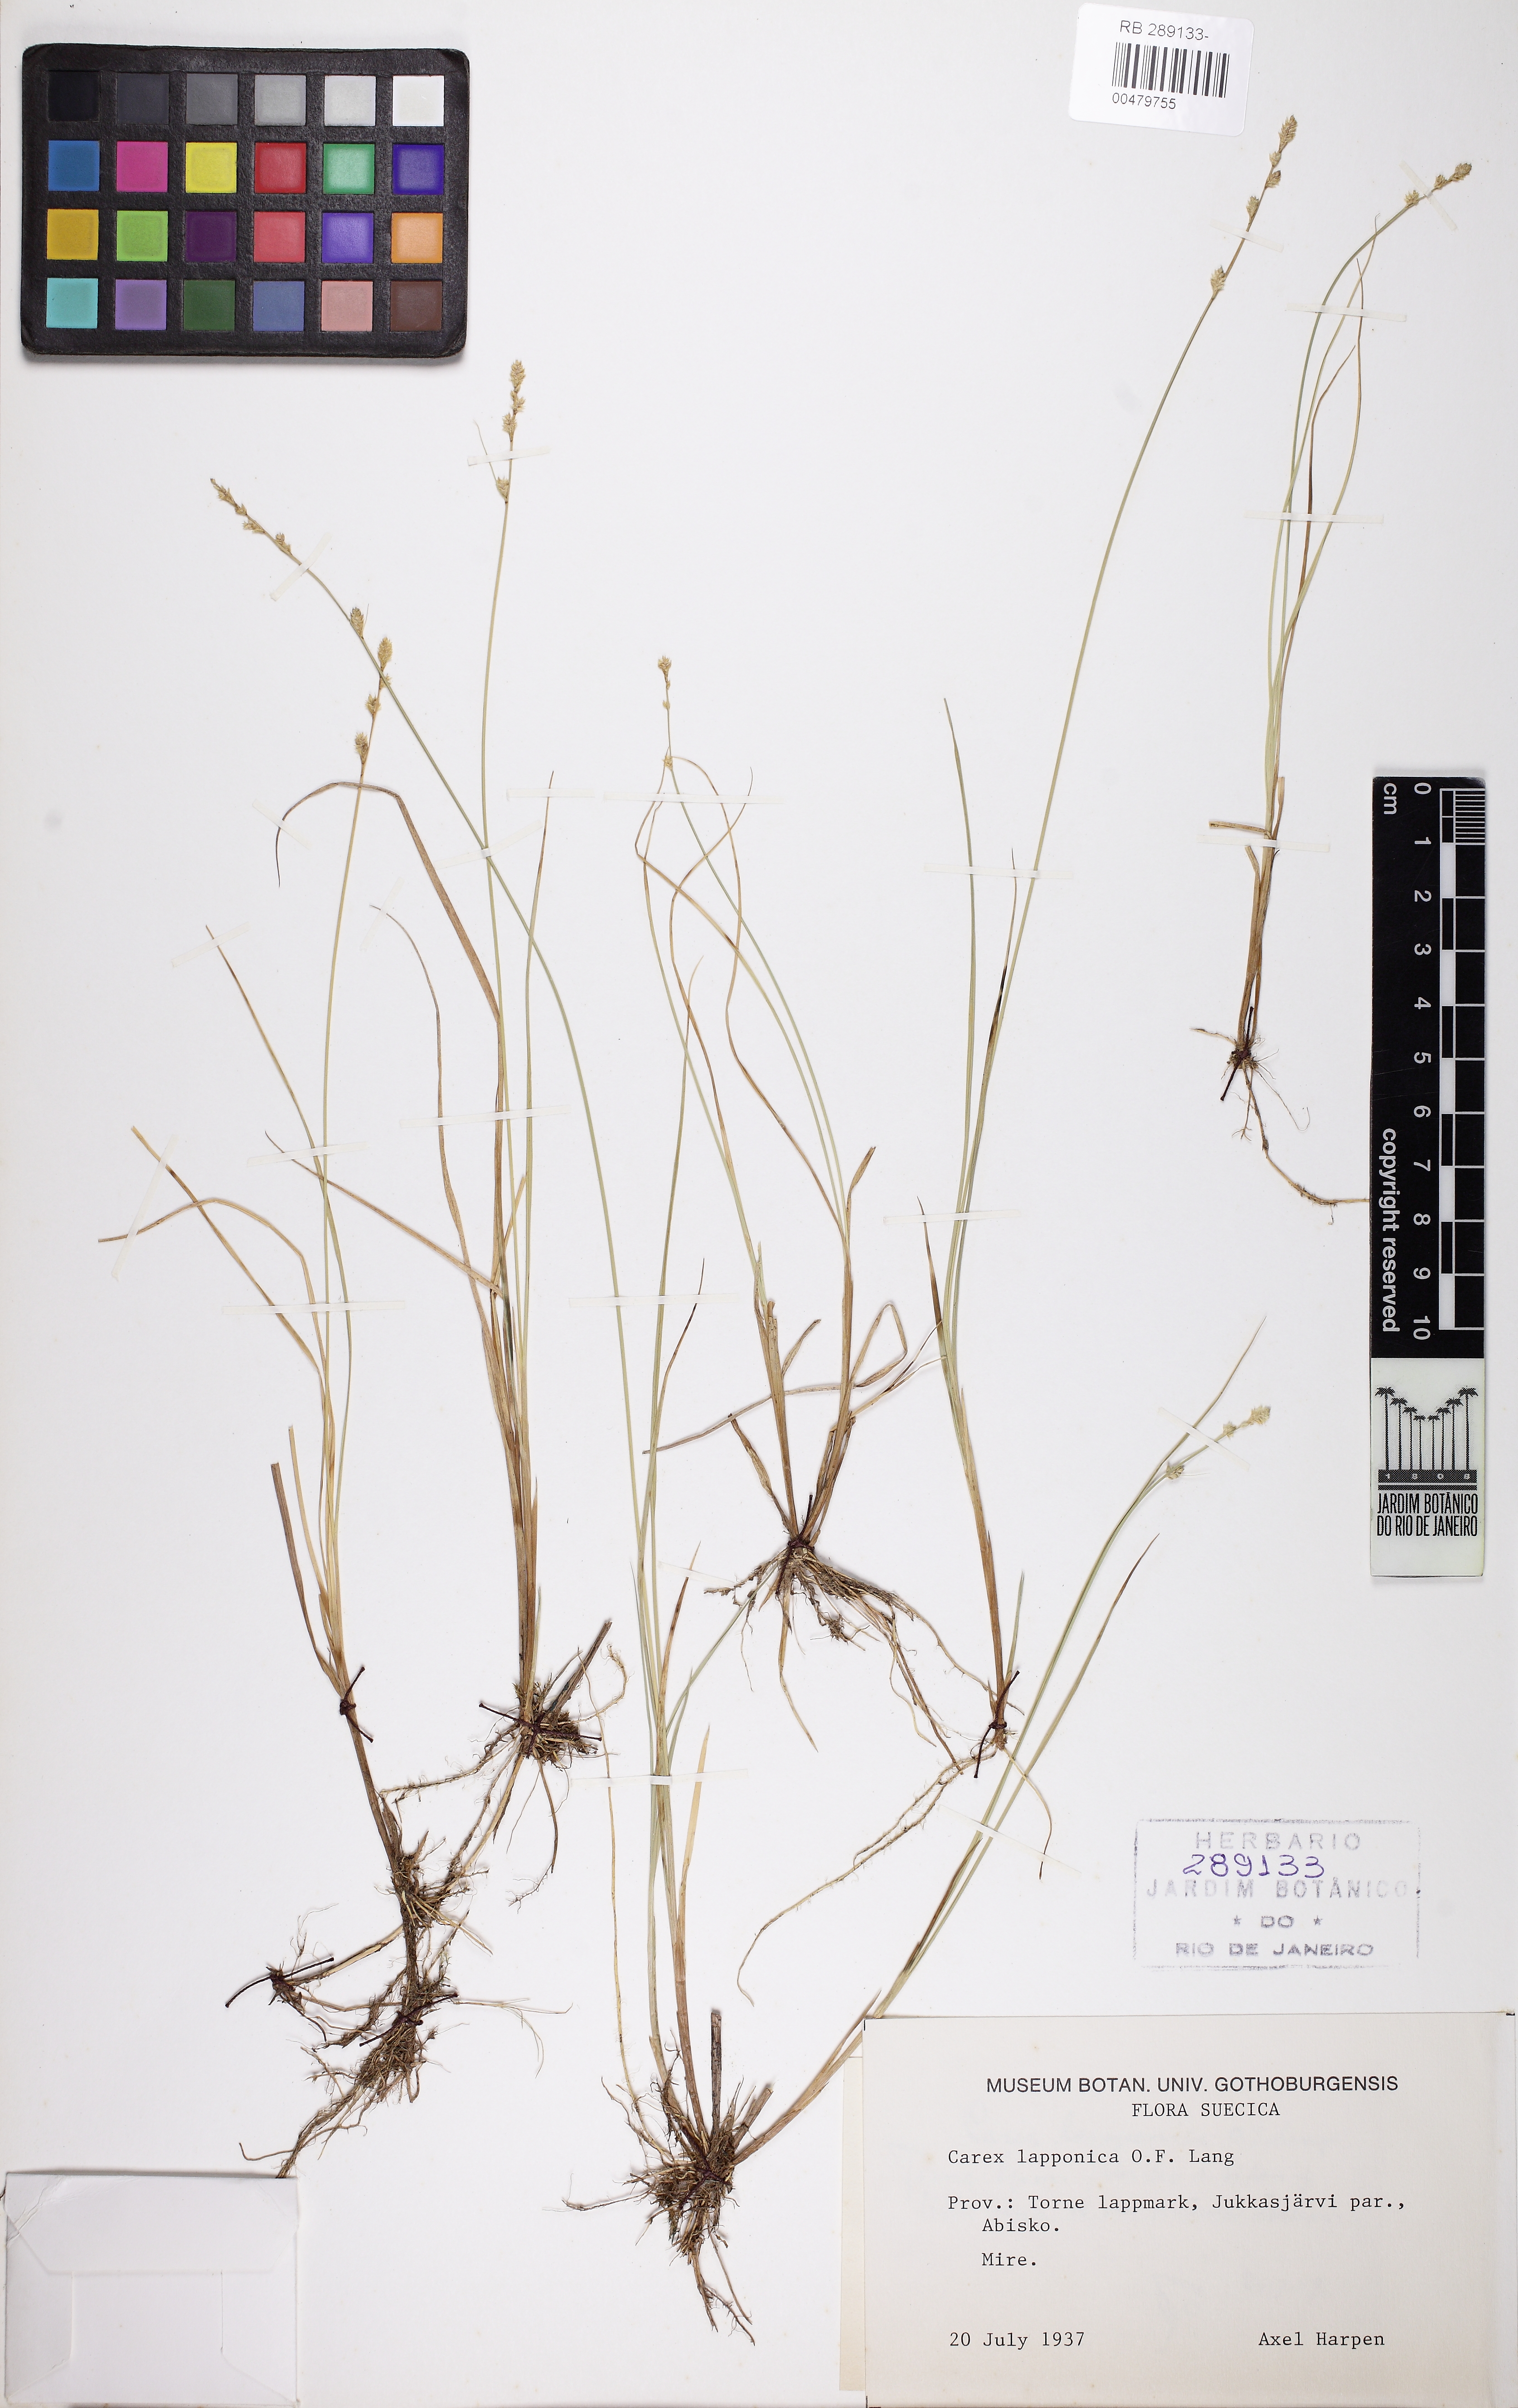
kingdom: Plantae
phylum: Tracheophyta
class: Liliopsida
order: Poales
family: Cyperaceae
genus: Carex
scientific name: Carex lapponica
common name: Lapland sedge
